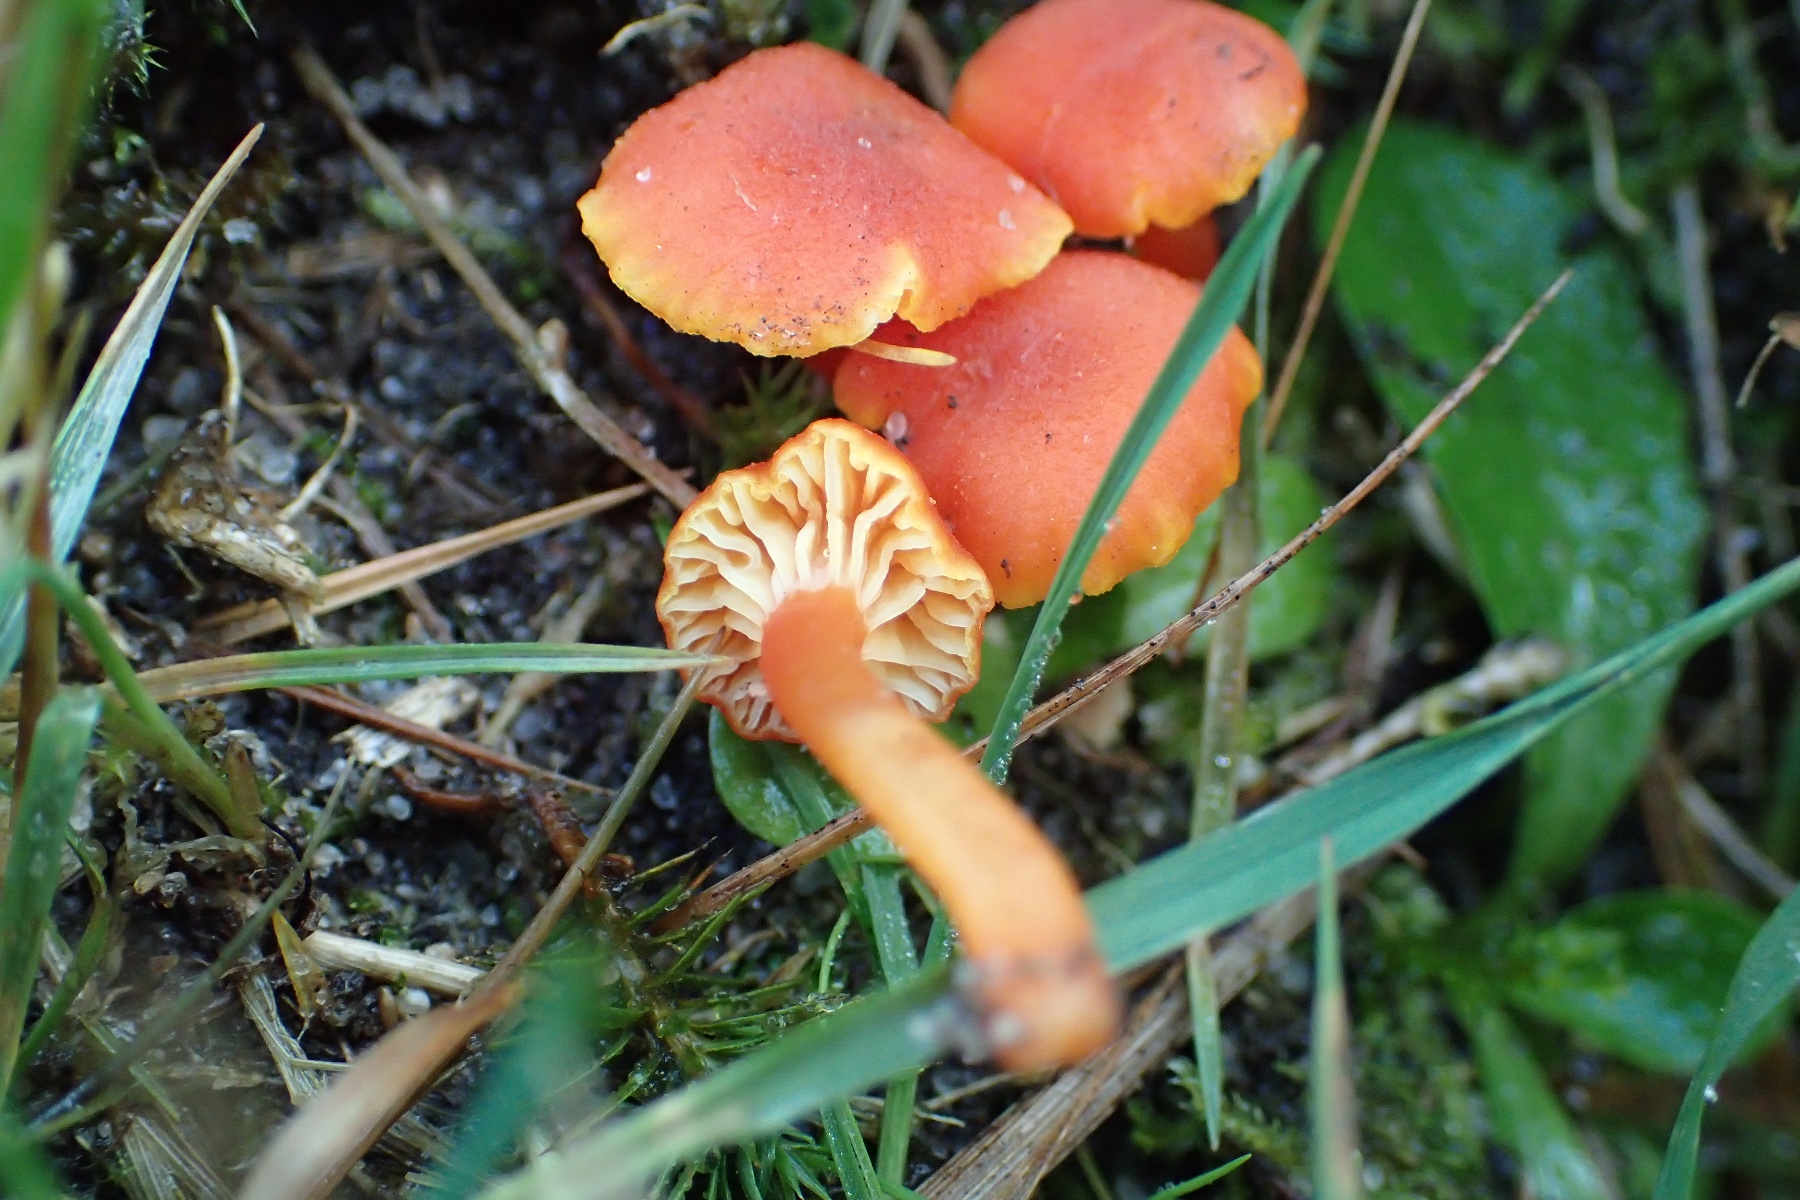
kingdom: Fungi
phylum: Basidiomycota
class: Agaricomycetes
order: Agaricales
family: Hygrophoraceae
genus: Hygrocybe
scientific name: Hygrocybe miniata
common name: mønje-vokshat
